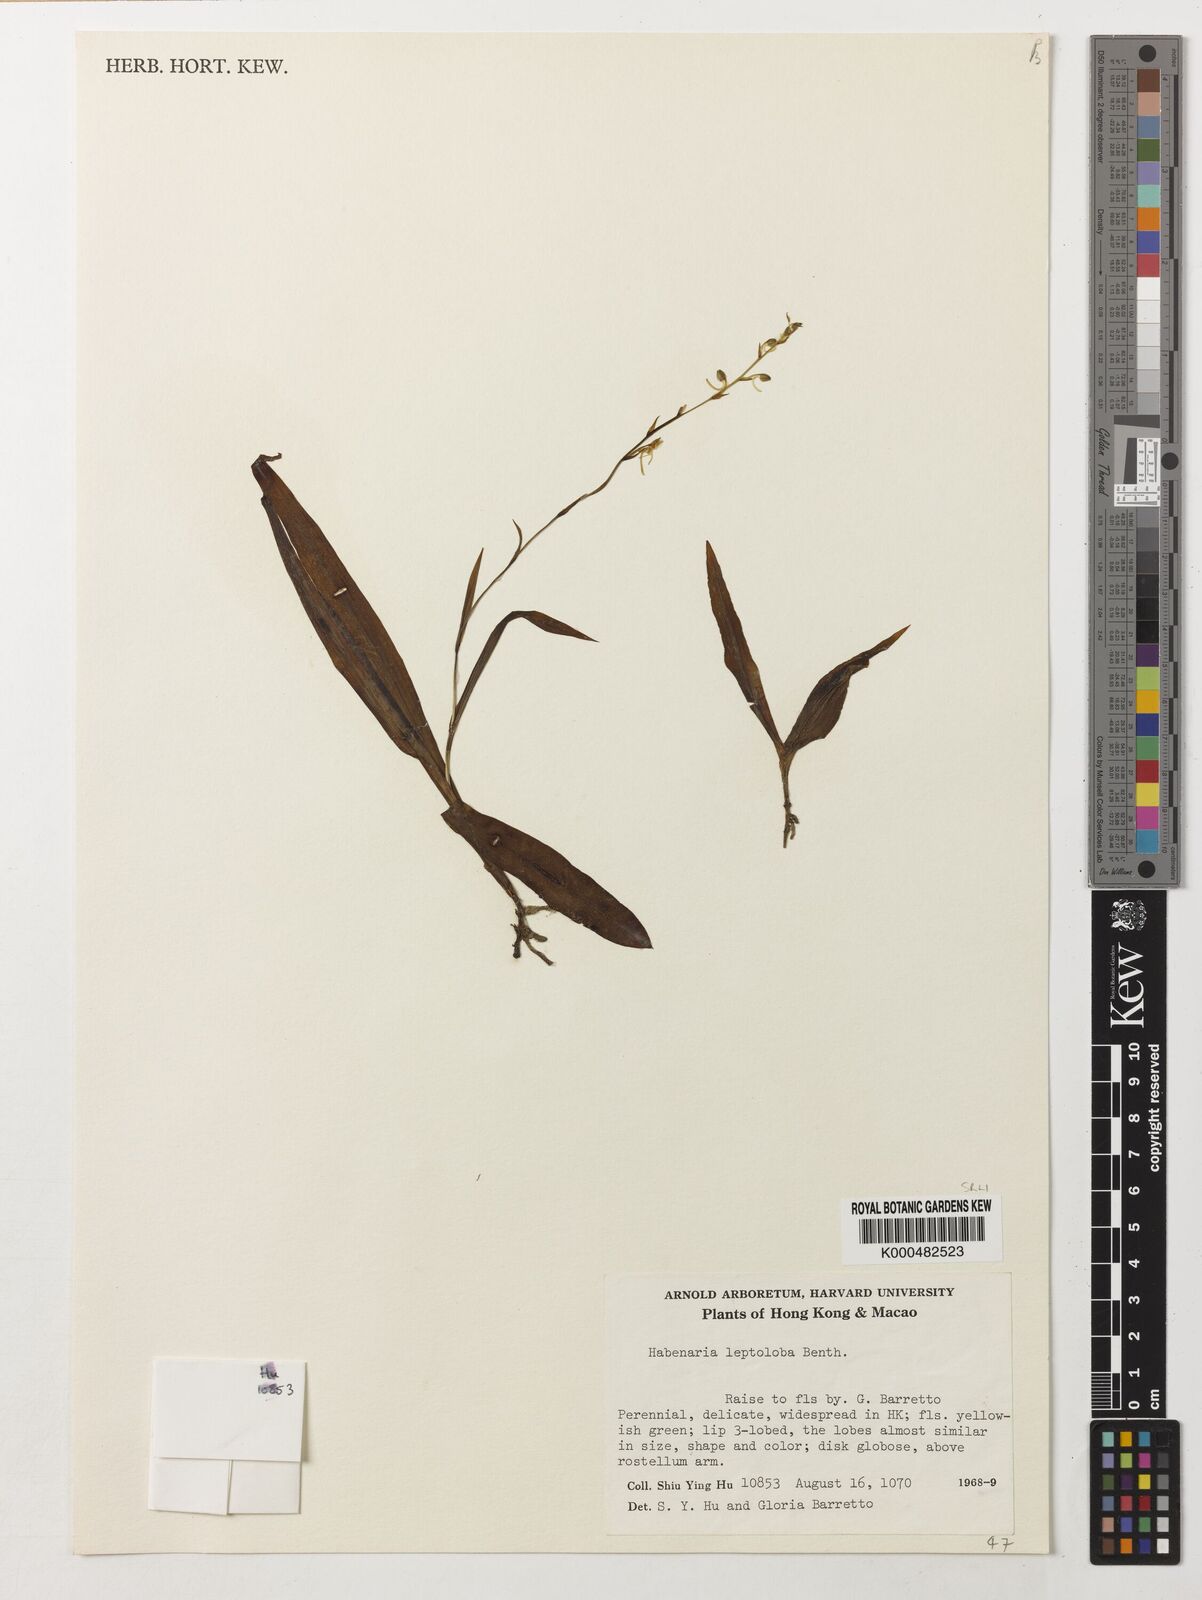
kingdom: Plantae
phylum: Tracheophyta
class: Liliopsida
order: Asparagales
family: Orchidaceae
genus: Habenaria
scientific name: Habenaria leptoloba
